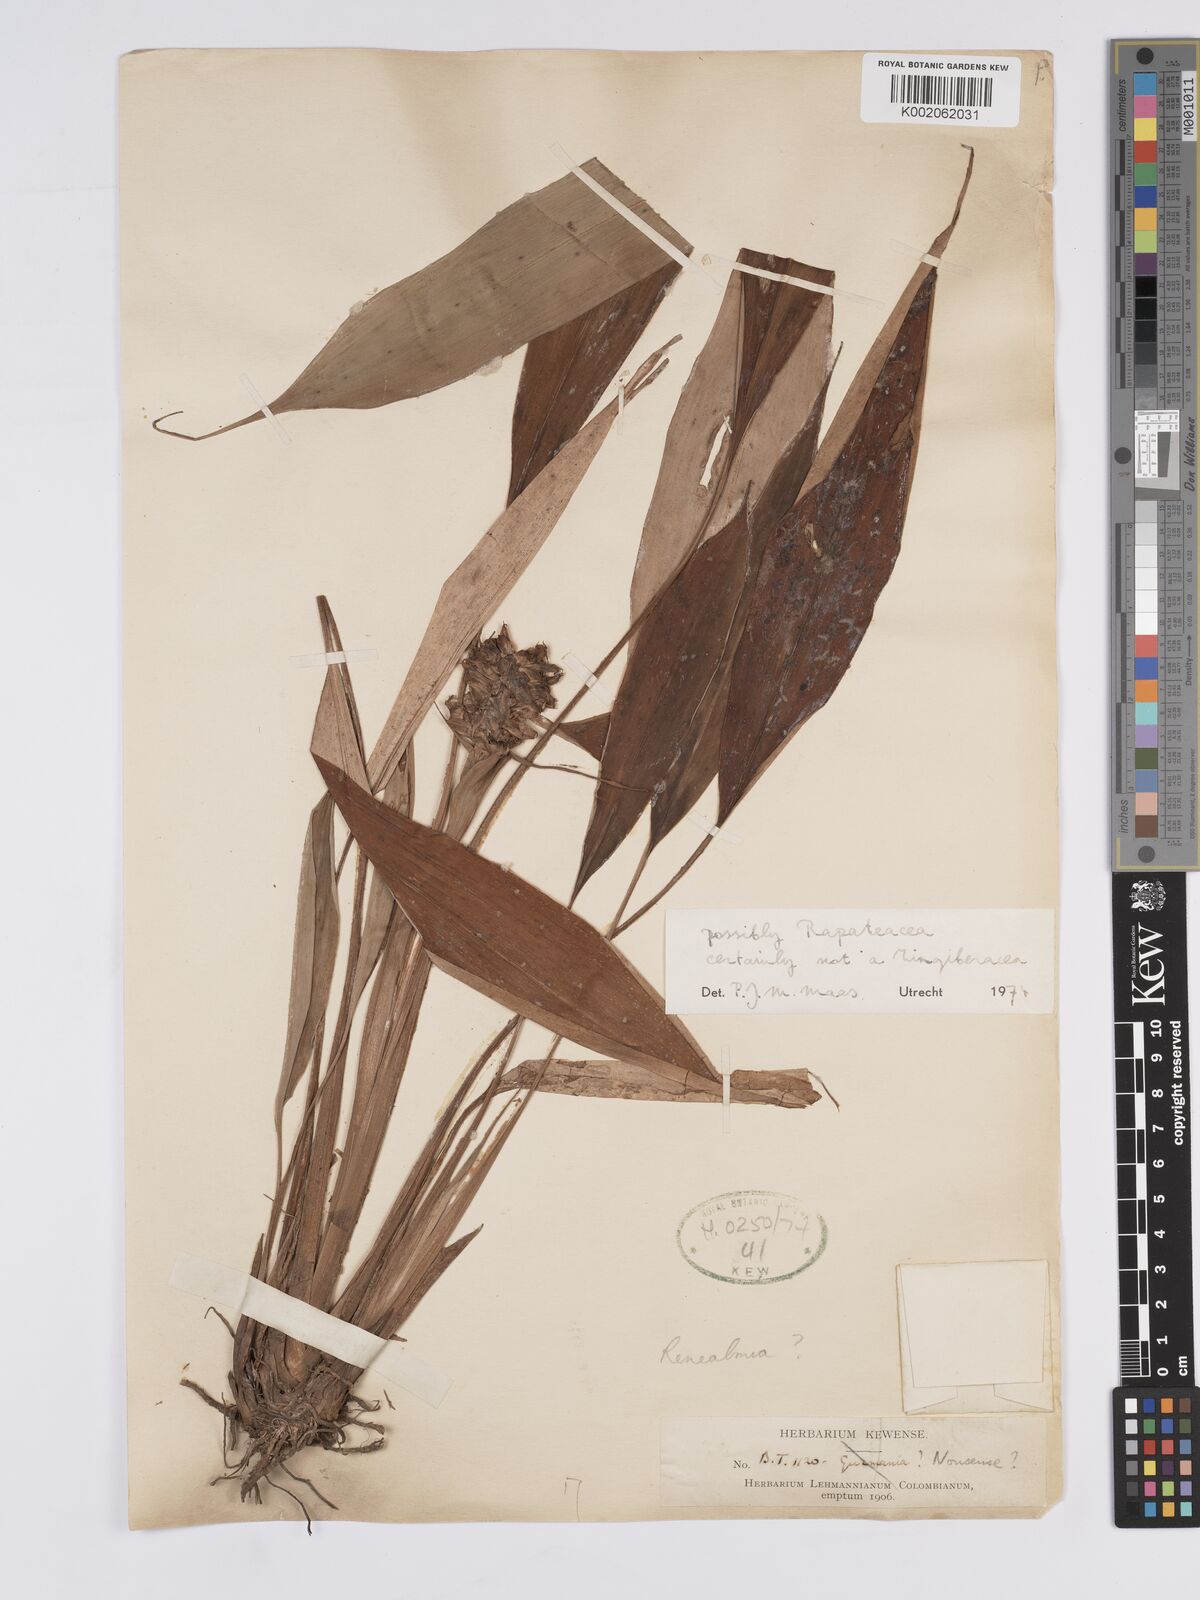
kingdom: Plantae
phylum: Tracheophyta
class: Liliopsida
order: Poales
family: Rapateaceae
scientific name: Rapateaceae
